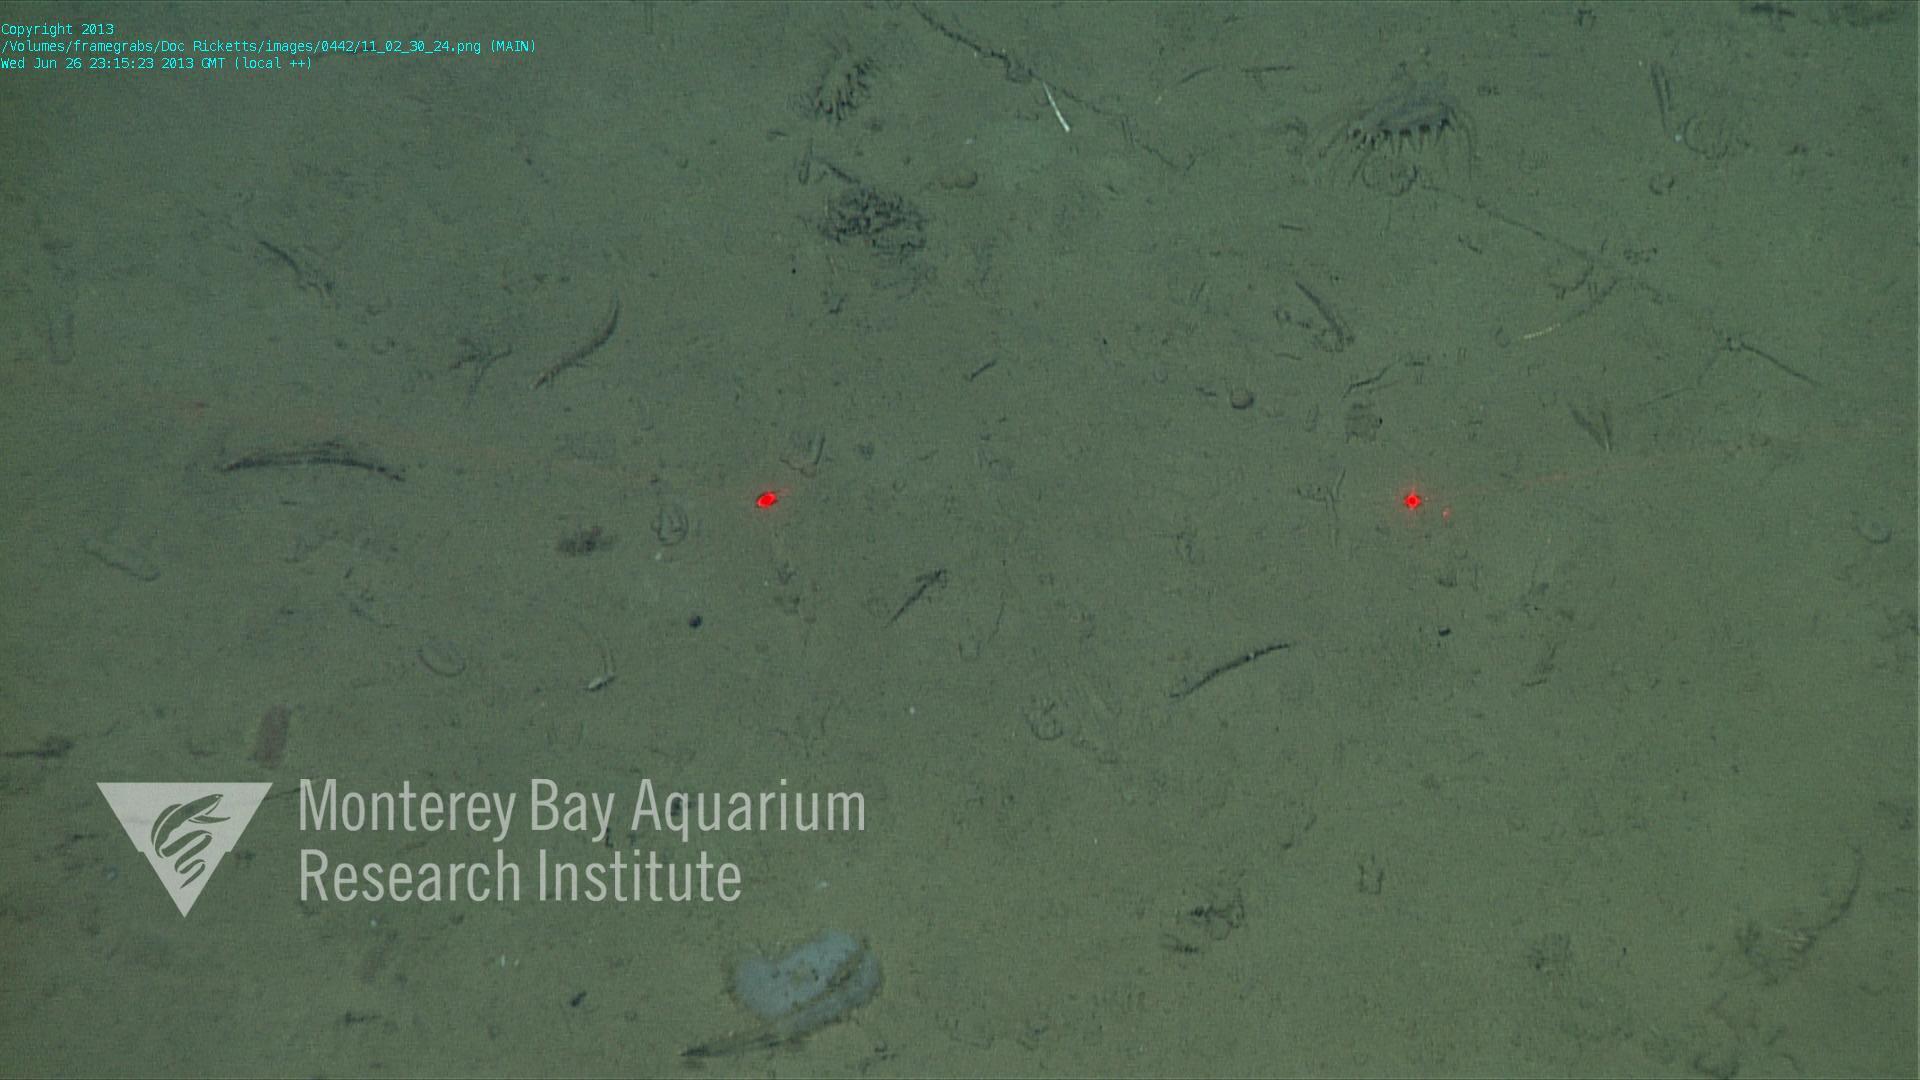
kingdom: Animalia
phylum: Porifera
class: Hexactinellida
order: Lyssacinosida
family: Euplectellidae
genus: Docosaccus
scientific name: Docosaccus maculatus
